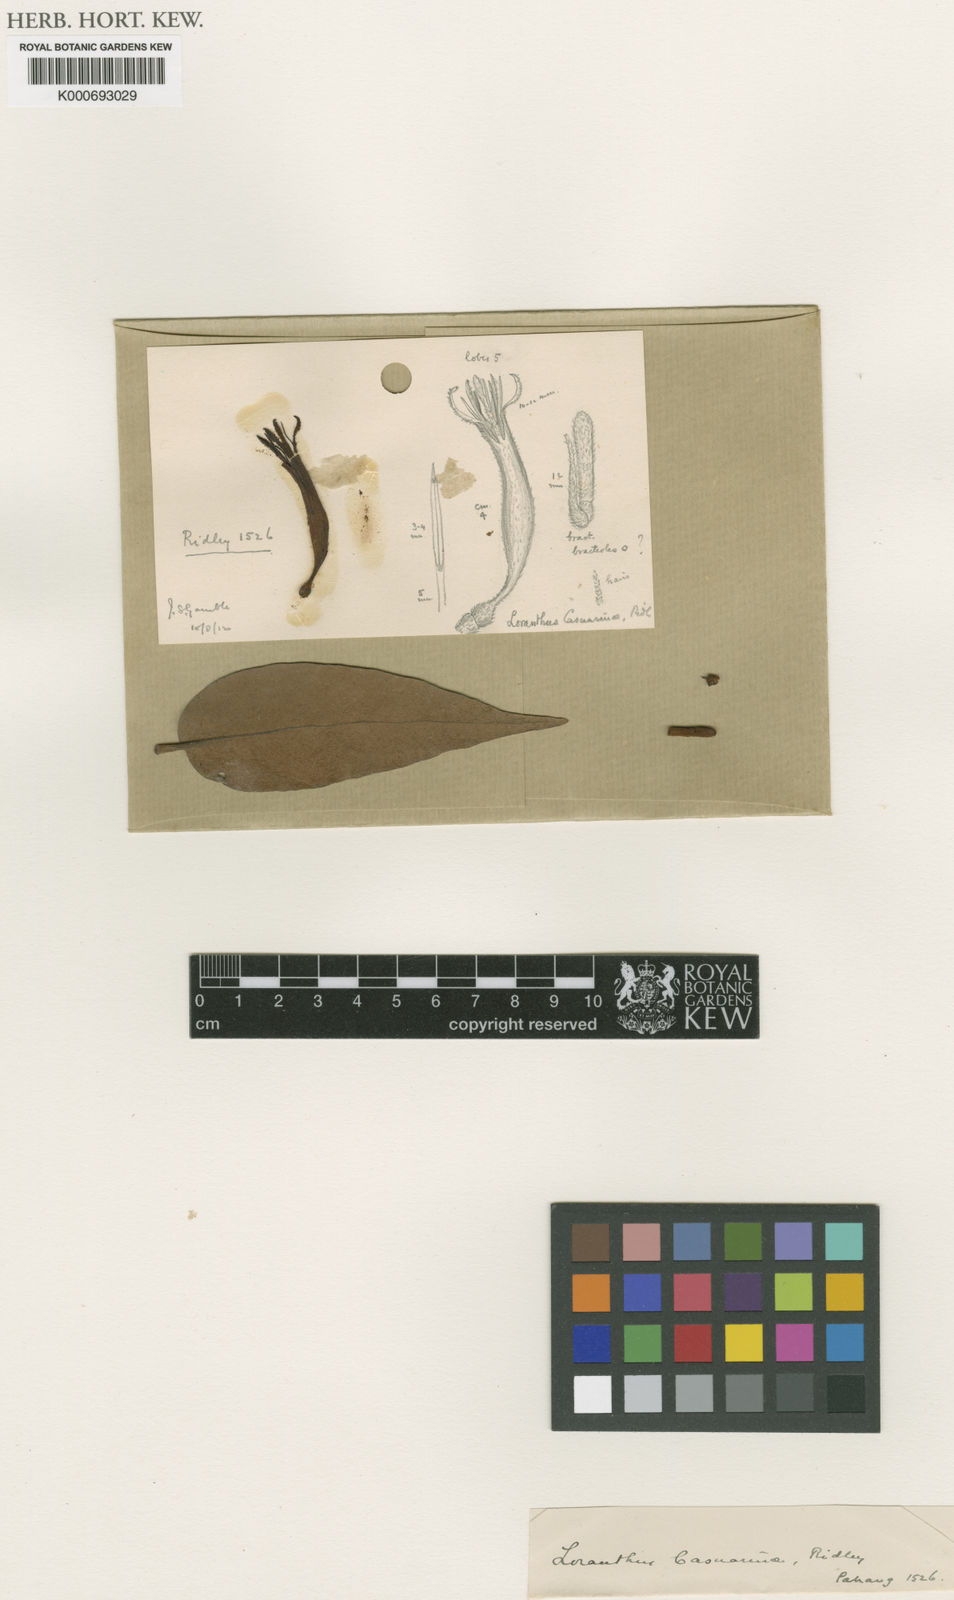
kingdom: Plantae
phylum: Tracheophyta
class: Magnoliopsida
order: Santalales
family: Loranthaceae
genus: Dendrophthoe
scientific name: Dendrophthoe lanosa
